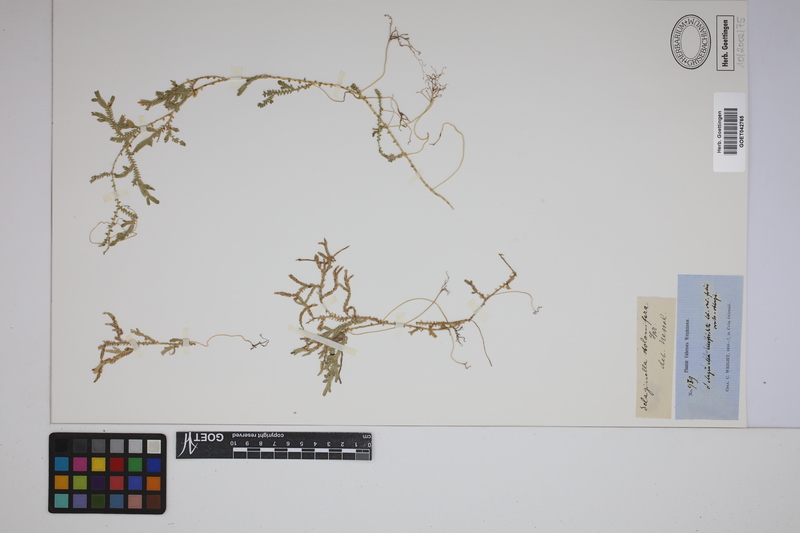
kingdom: Plantae
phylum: Tracheophyta
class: Lycopodiopsida
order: Selaginellales
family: Selaginellaceae
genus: Selaginella
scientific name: Selaginella plumosa
